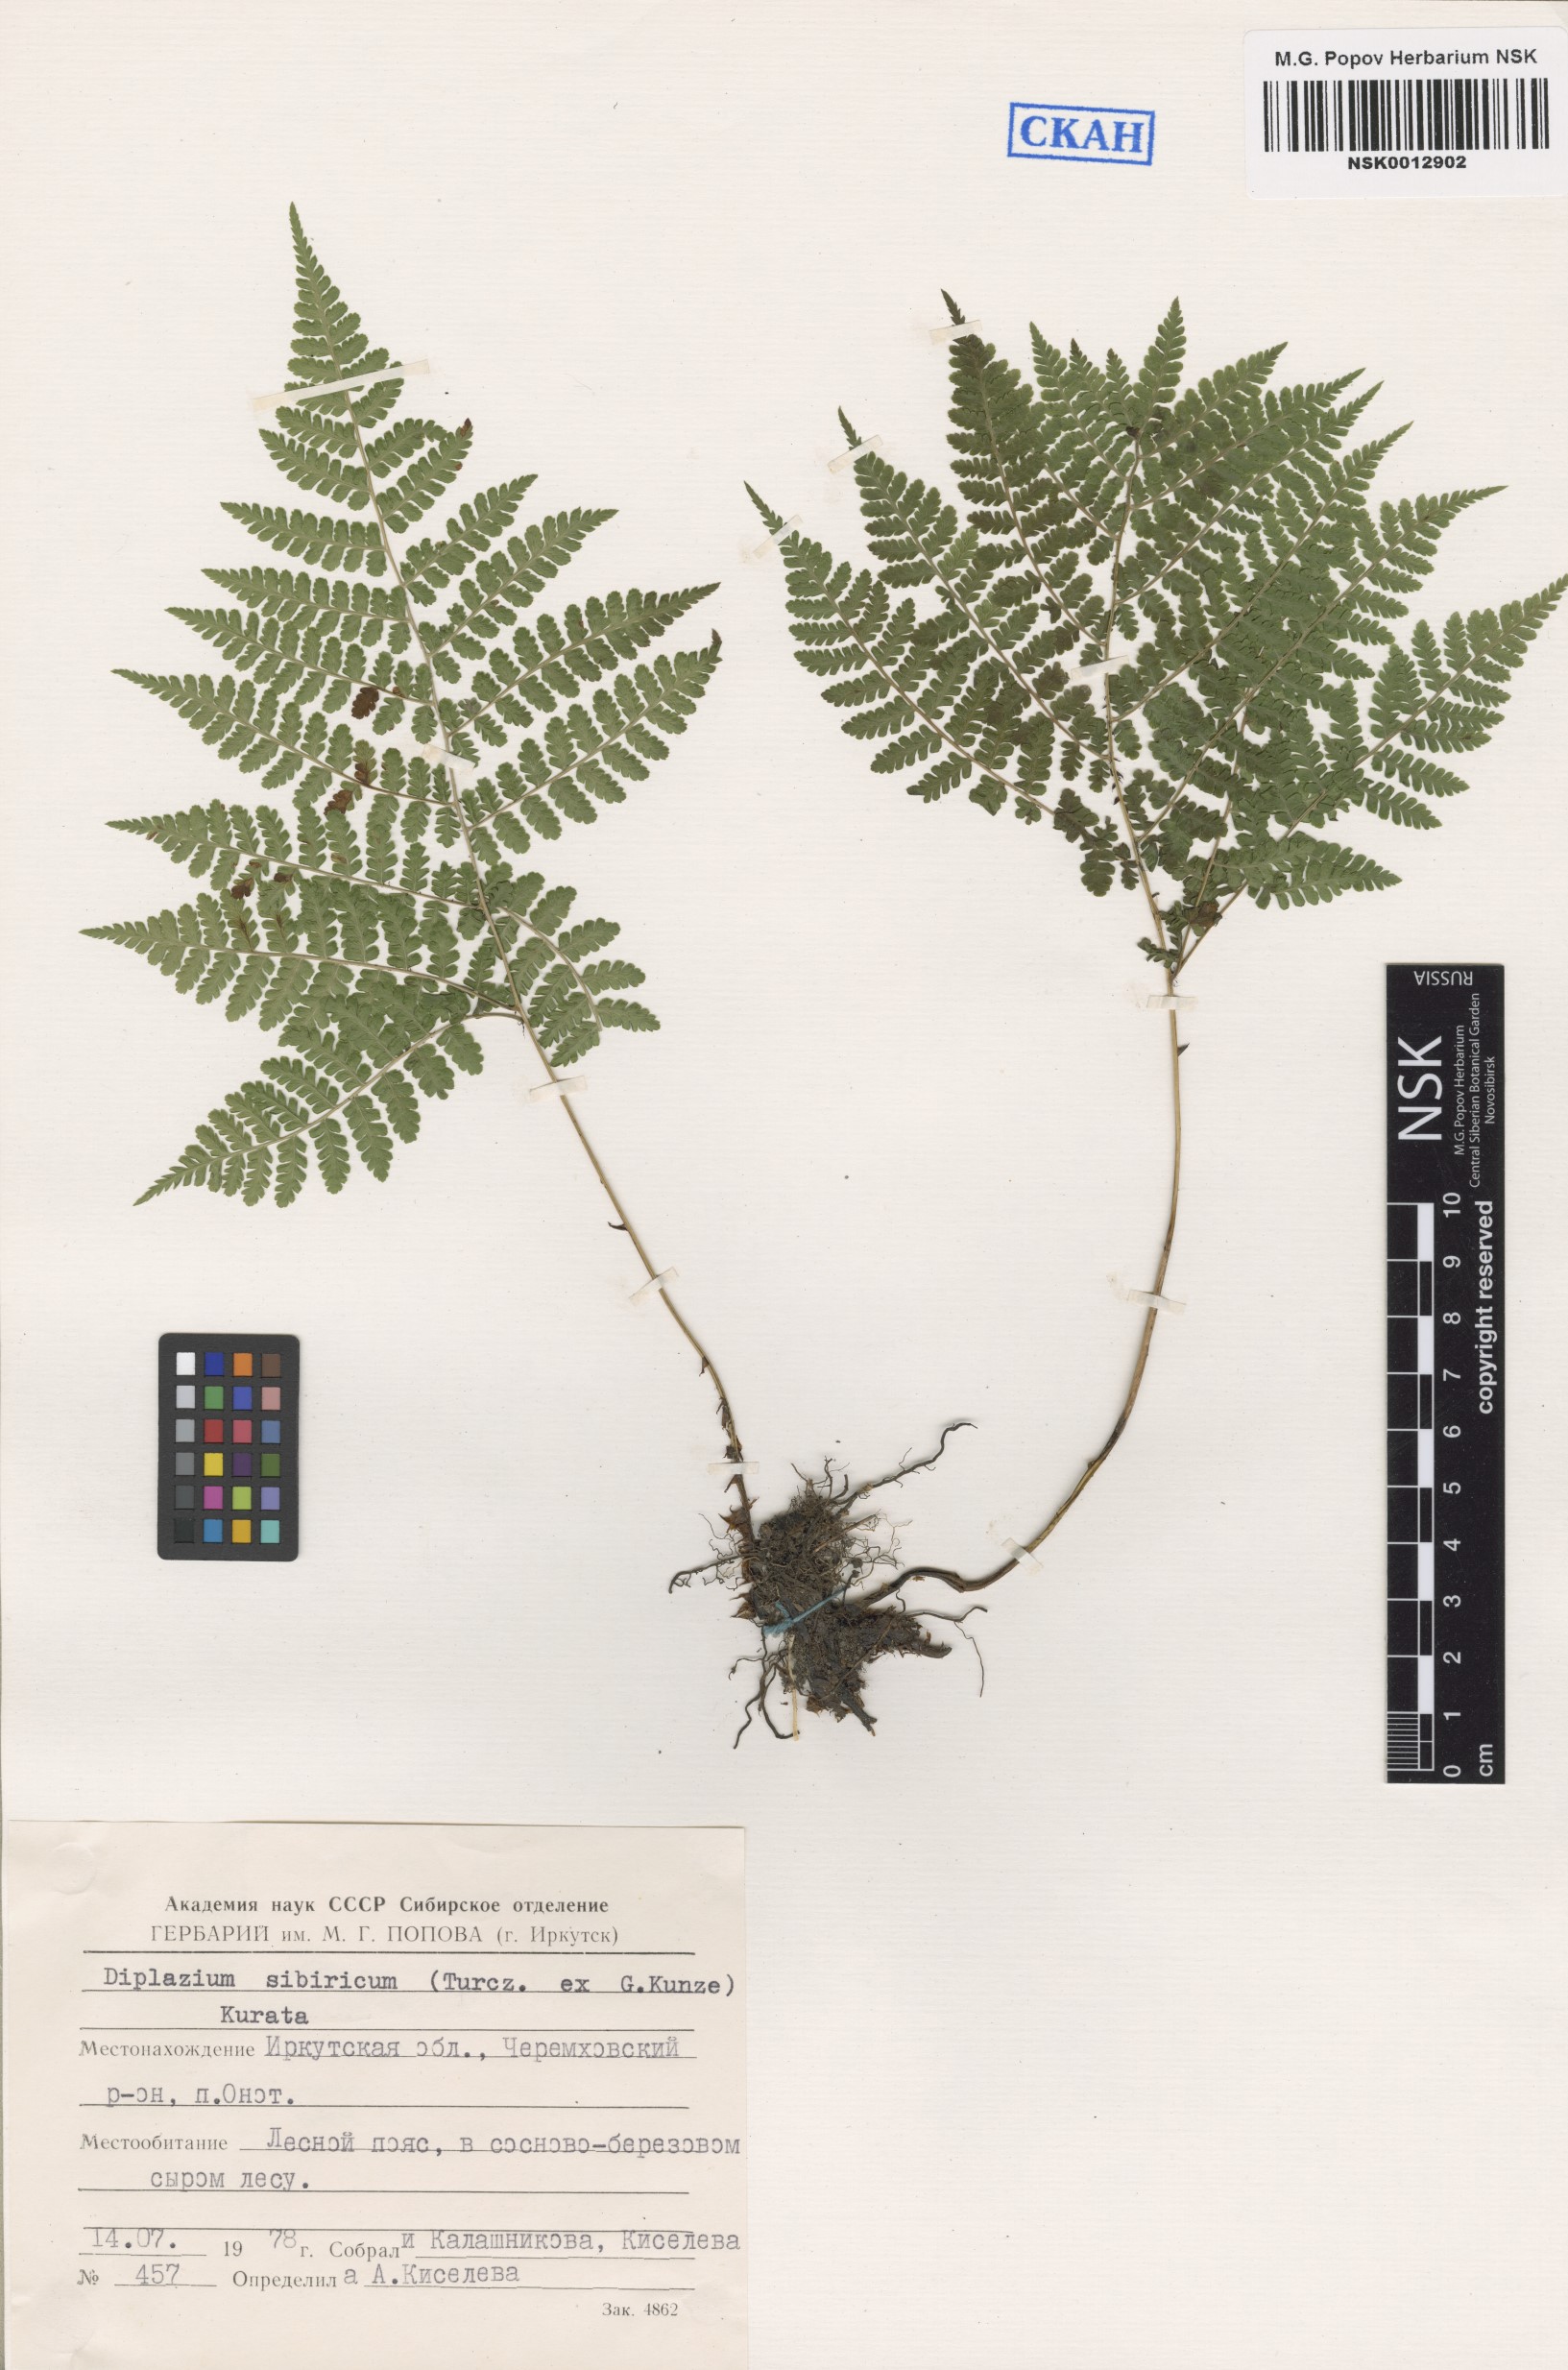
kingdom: Plantae
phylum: Tracheophyta
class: Polypodiopsida
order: Polypodiales
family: Athyriaceae
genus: Diplazium
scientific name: Diplazium sibiricum
